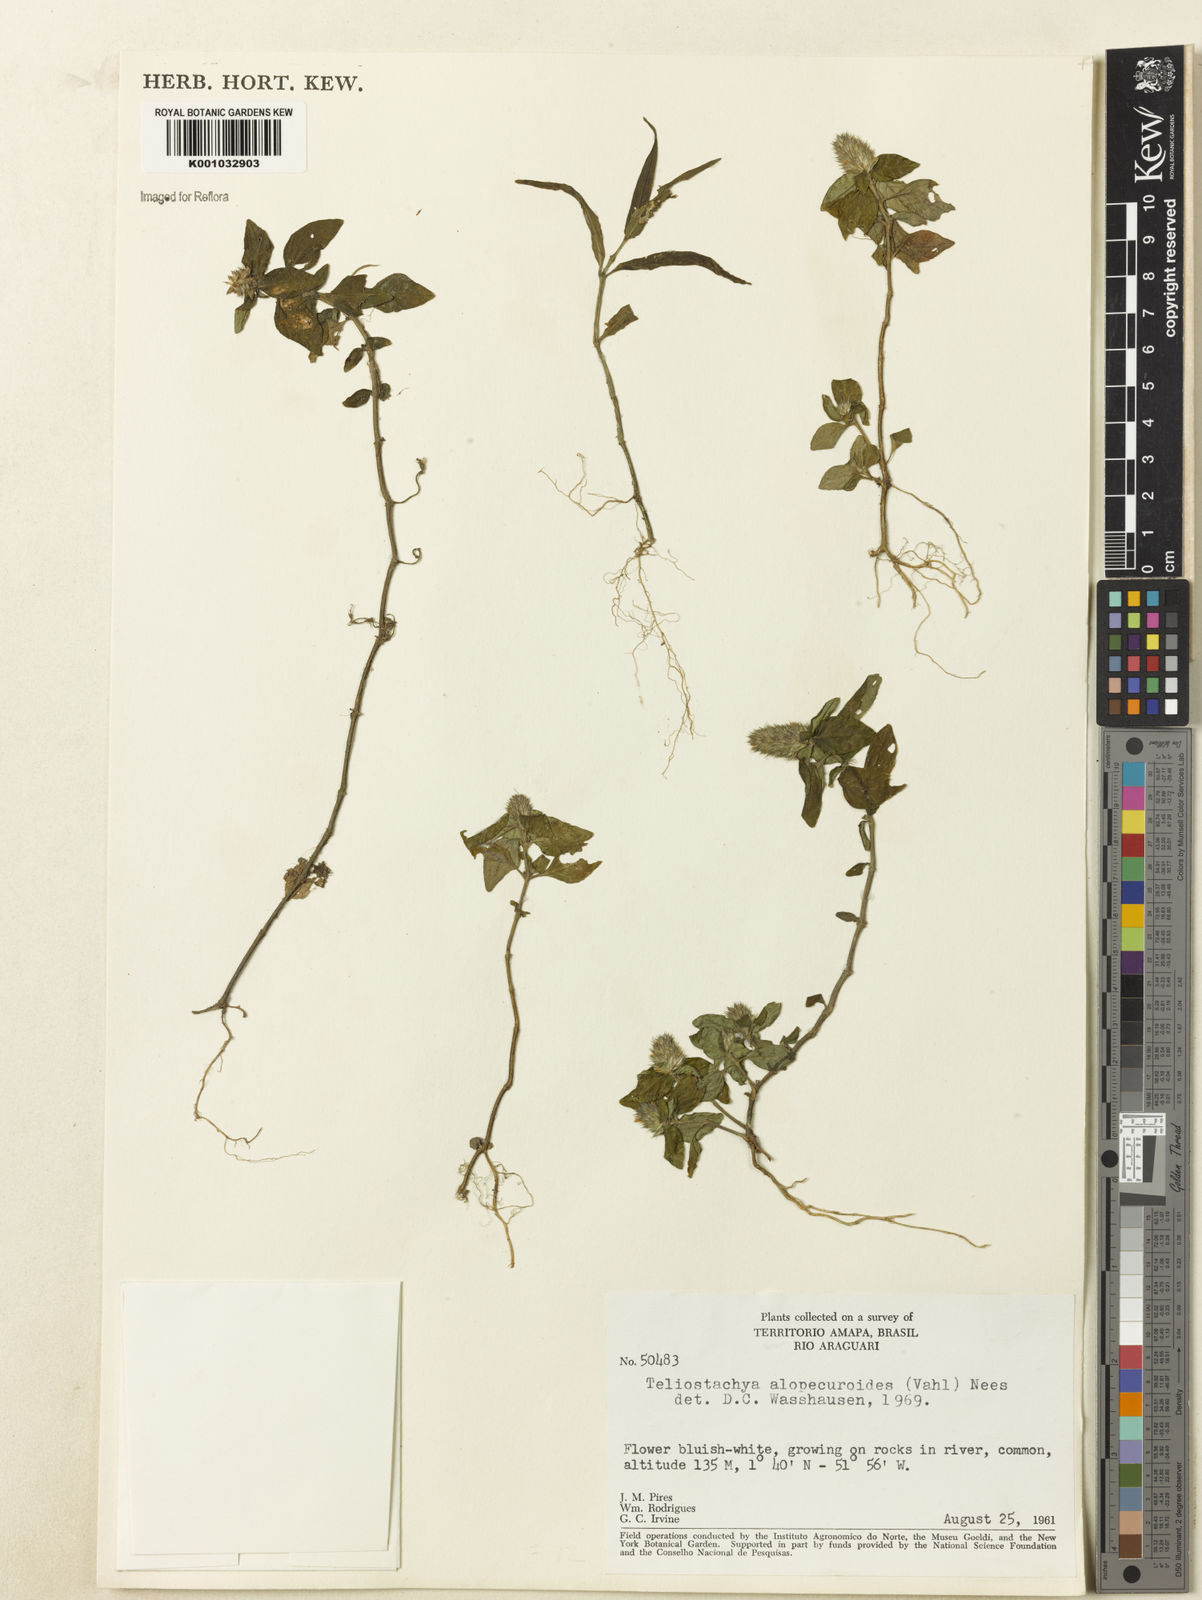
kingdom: Plantae
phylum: Tracheophyta
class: Magnoliopsida
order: Lamiales
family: Acanthaceae
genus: Lepidagathis
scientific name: Lepidagathis alopecuroidea
